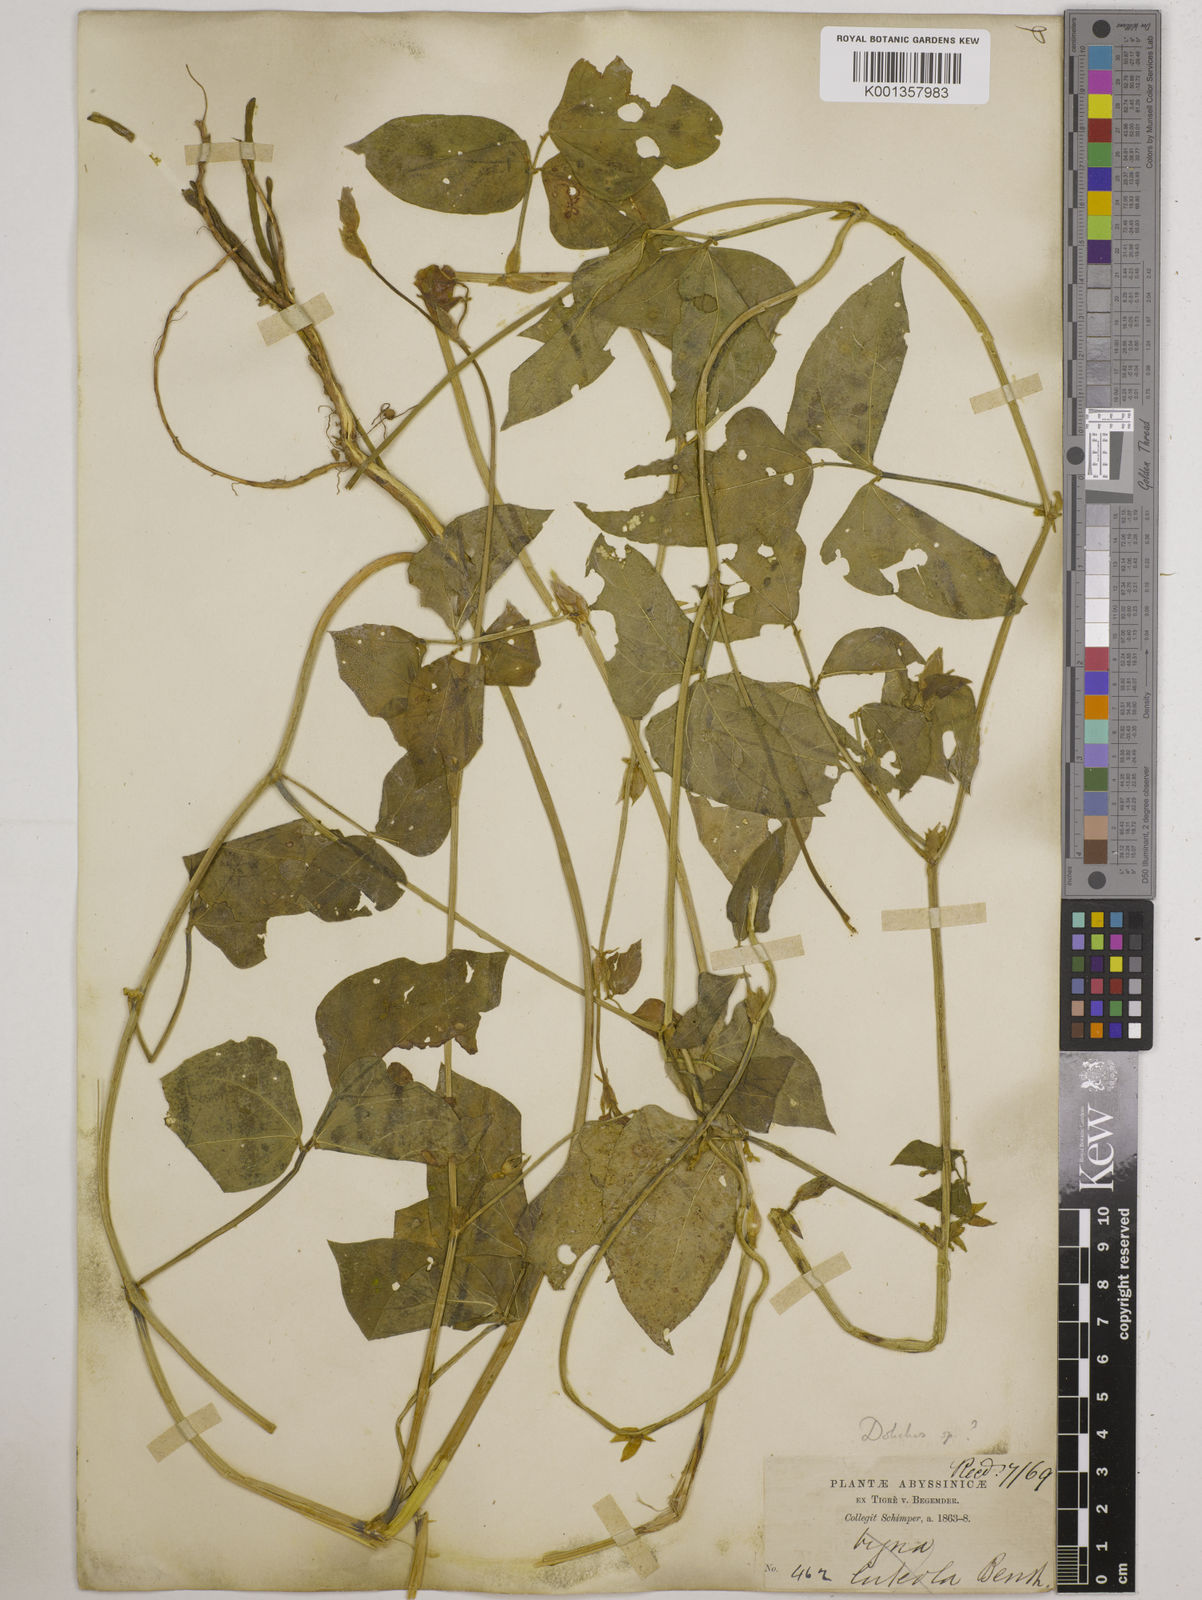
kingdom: Plantae
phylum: Tracheophyta
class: Magnoliopsida
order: Fabales
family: Fabaceae
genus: Vigna
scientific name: Vigna
